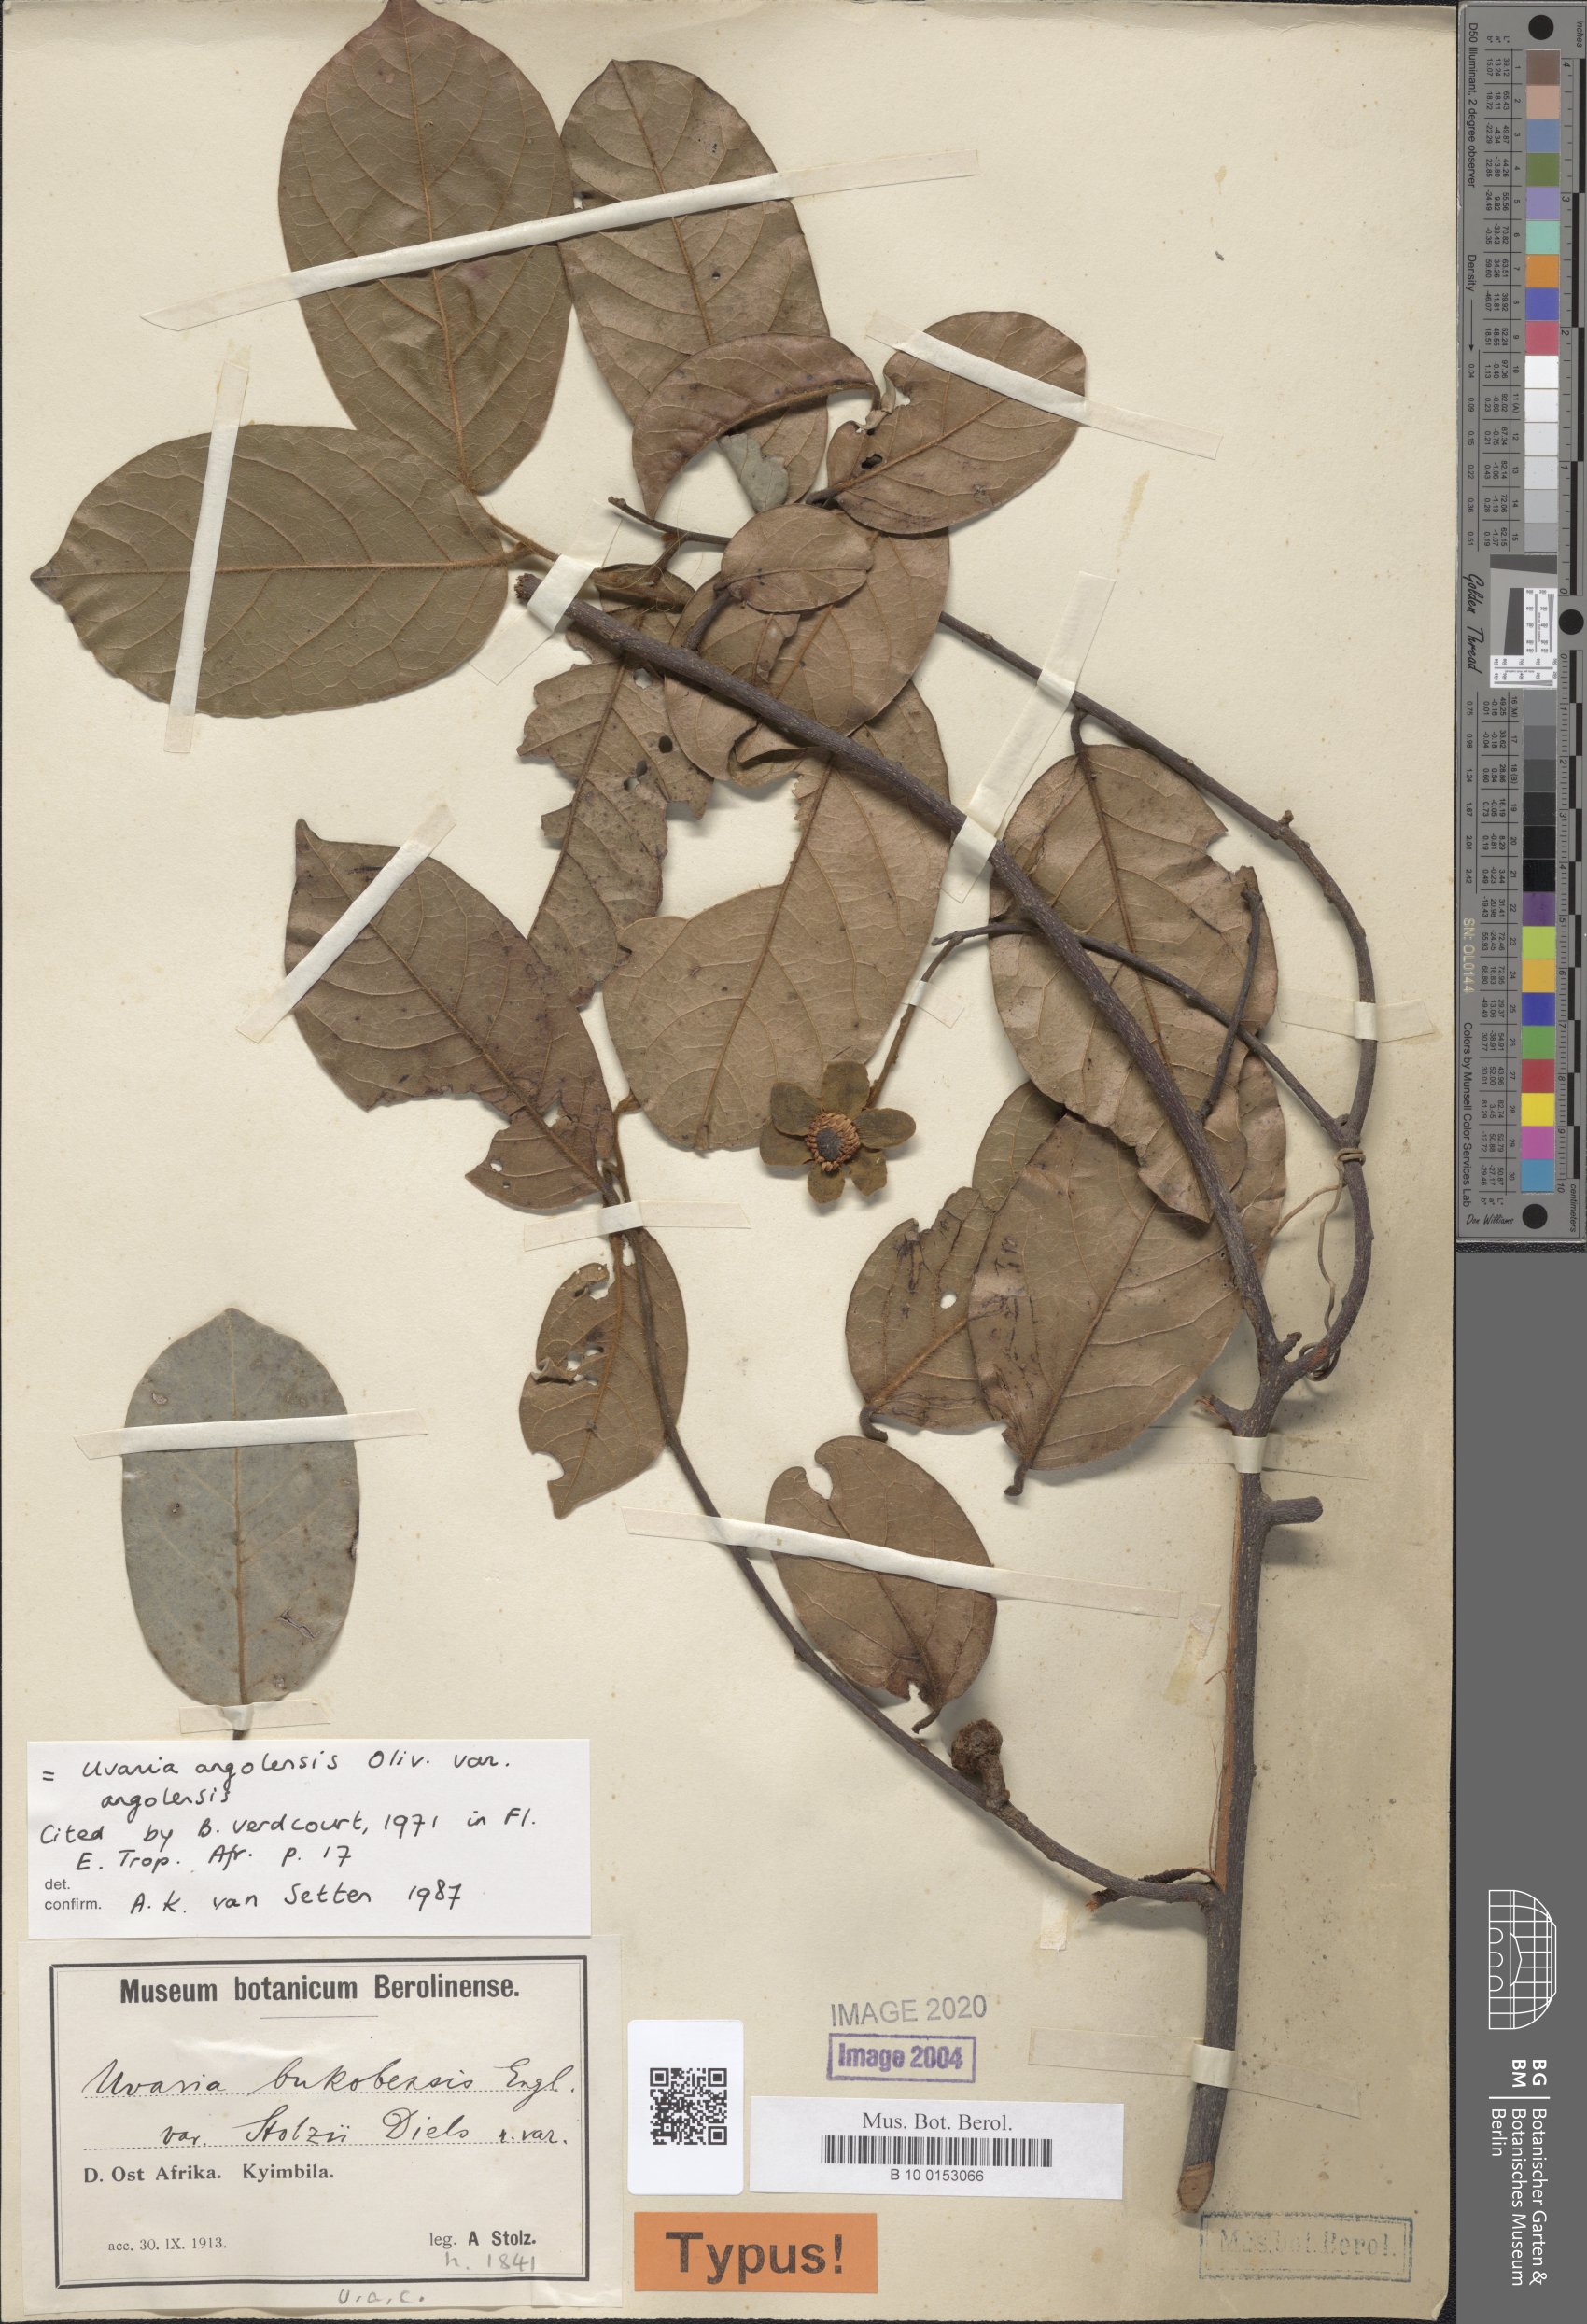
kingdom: Plantae
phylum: Tracheophyta
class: Magnoliopsida
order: Magnoliales
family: Annonaceae
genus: Uvaria
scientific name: Uvaria angolensis
